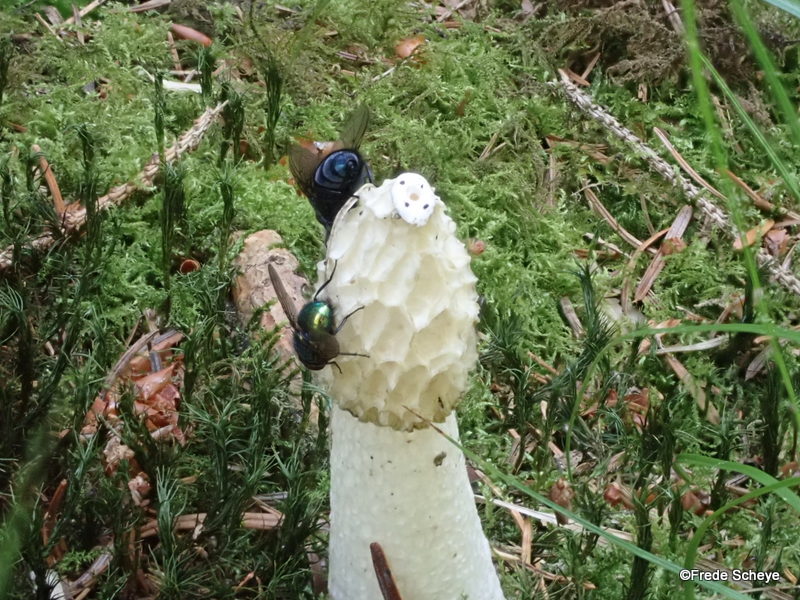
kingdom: Fungi
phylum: Basidiomycota
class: Agaricomycetes
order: Phallales
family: Phallaceae
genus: Phallus
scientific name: Phallus impudicus
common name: almindelig stinksvamp
